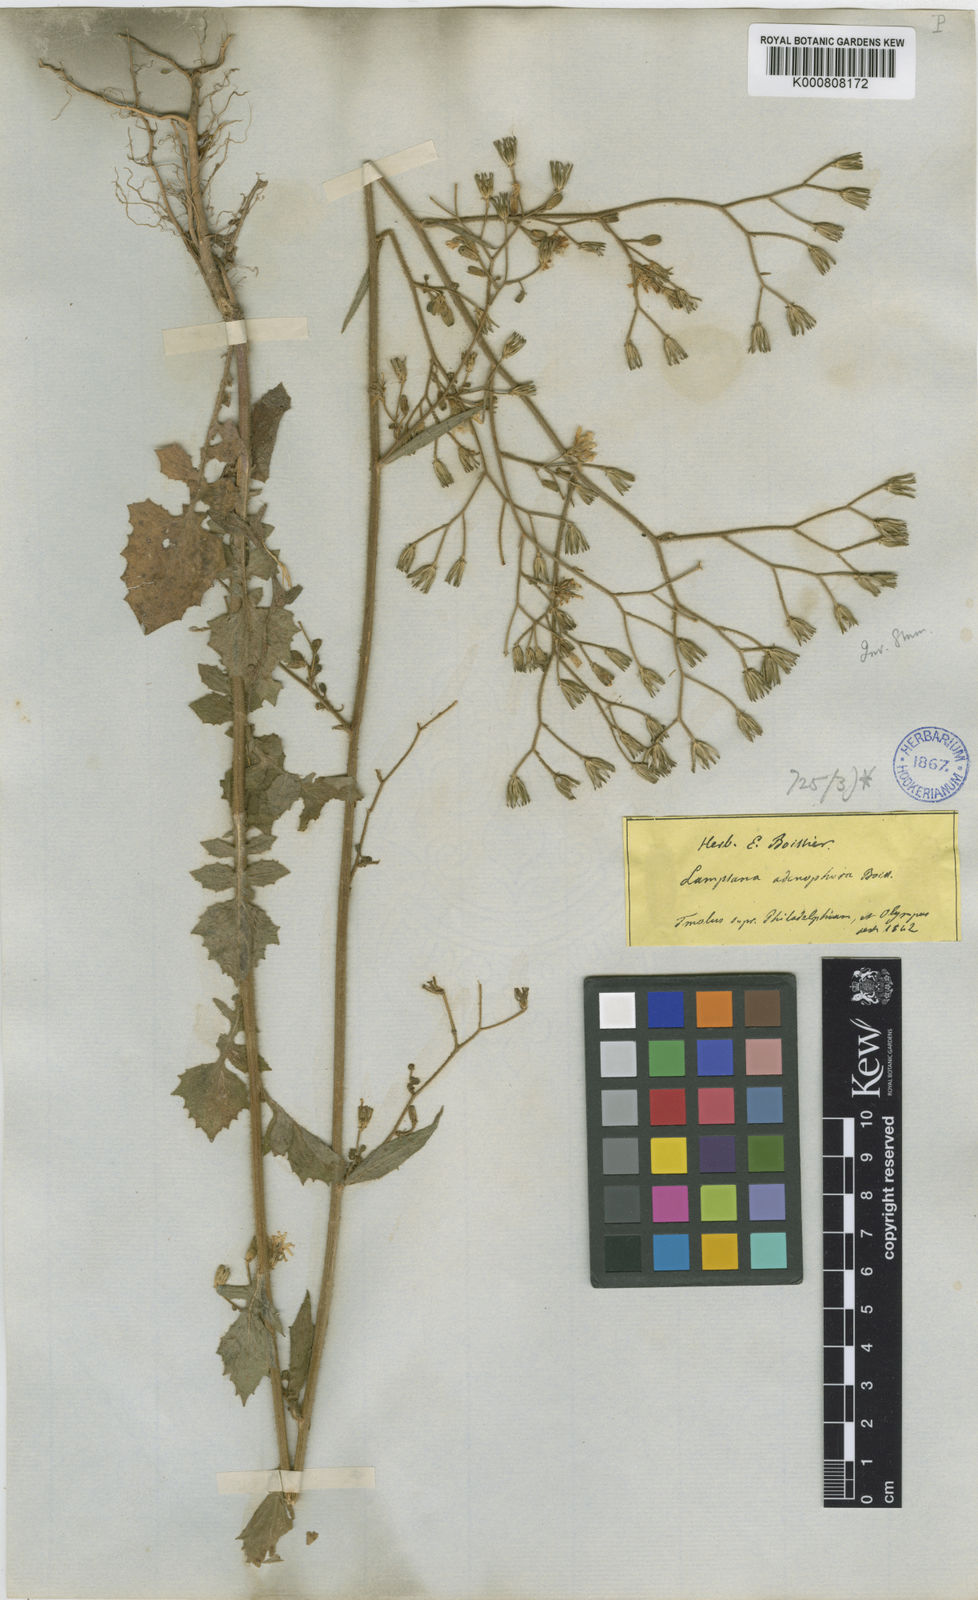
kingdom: Plantae
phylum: Tracheophyta
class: Magnoliopsida
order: Asterales
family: Asteraceae
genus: Lapsana
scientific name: Lapsana communis
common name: Nipplewort
